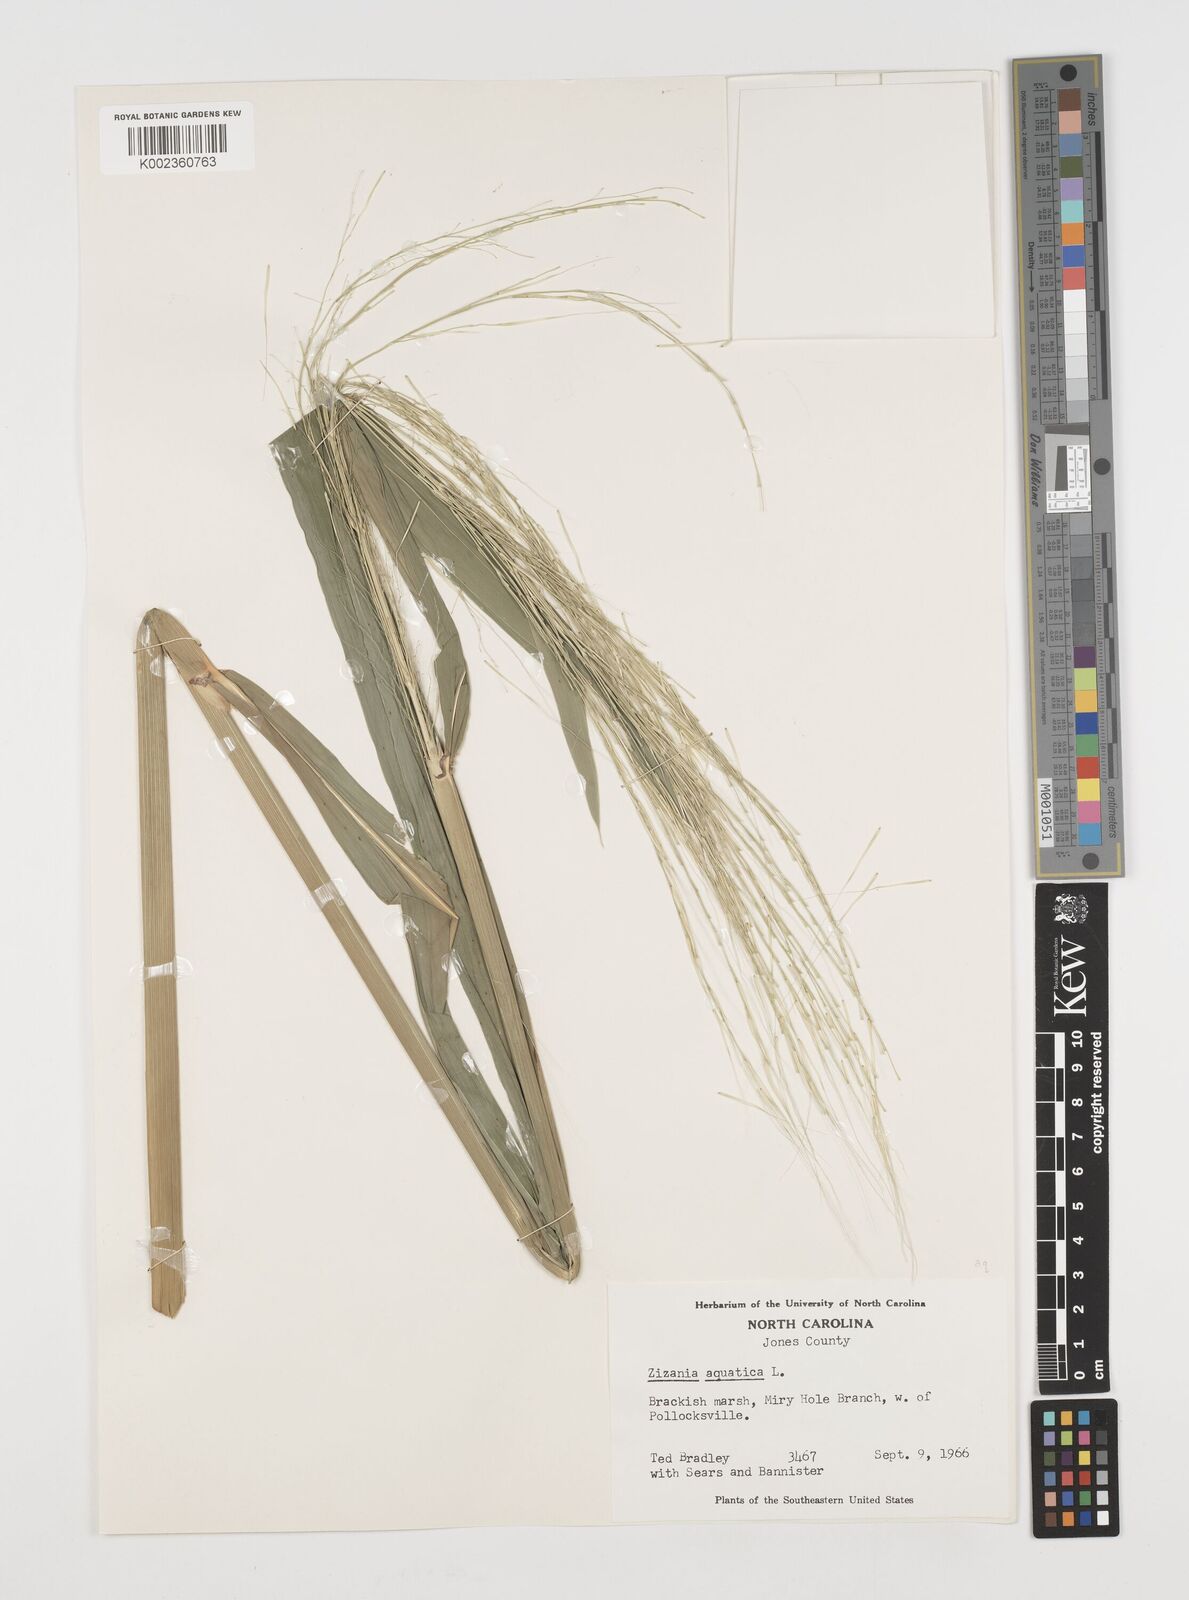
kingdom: Plantae
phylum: Tracheophyta
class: Liliopsida
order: Poales
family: Poaceae
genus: Zizania
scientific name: Zizania aquatica
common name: Annual wildrice
